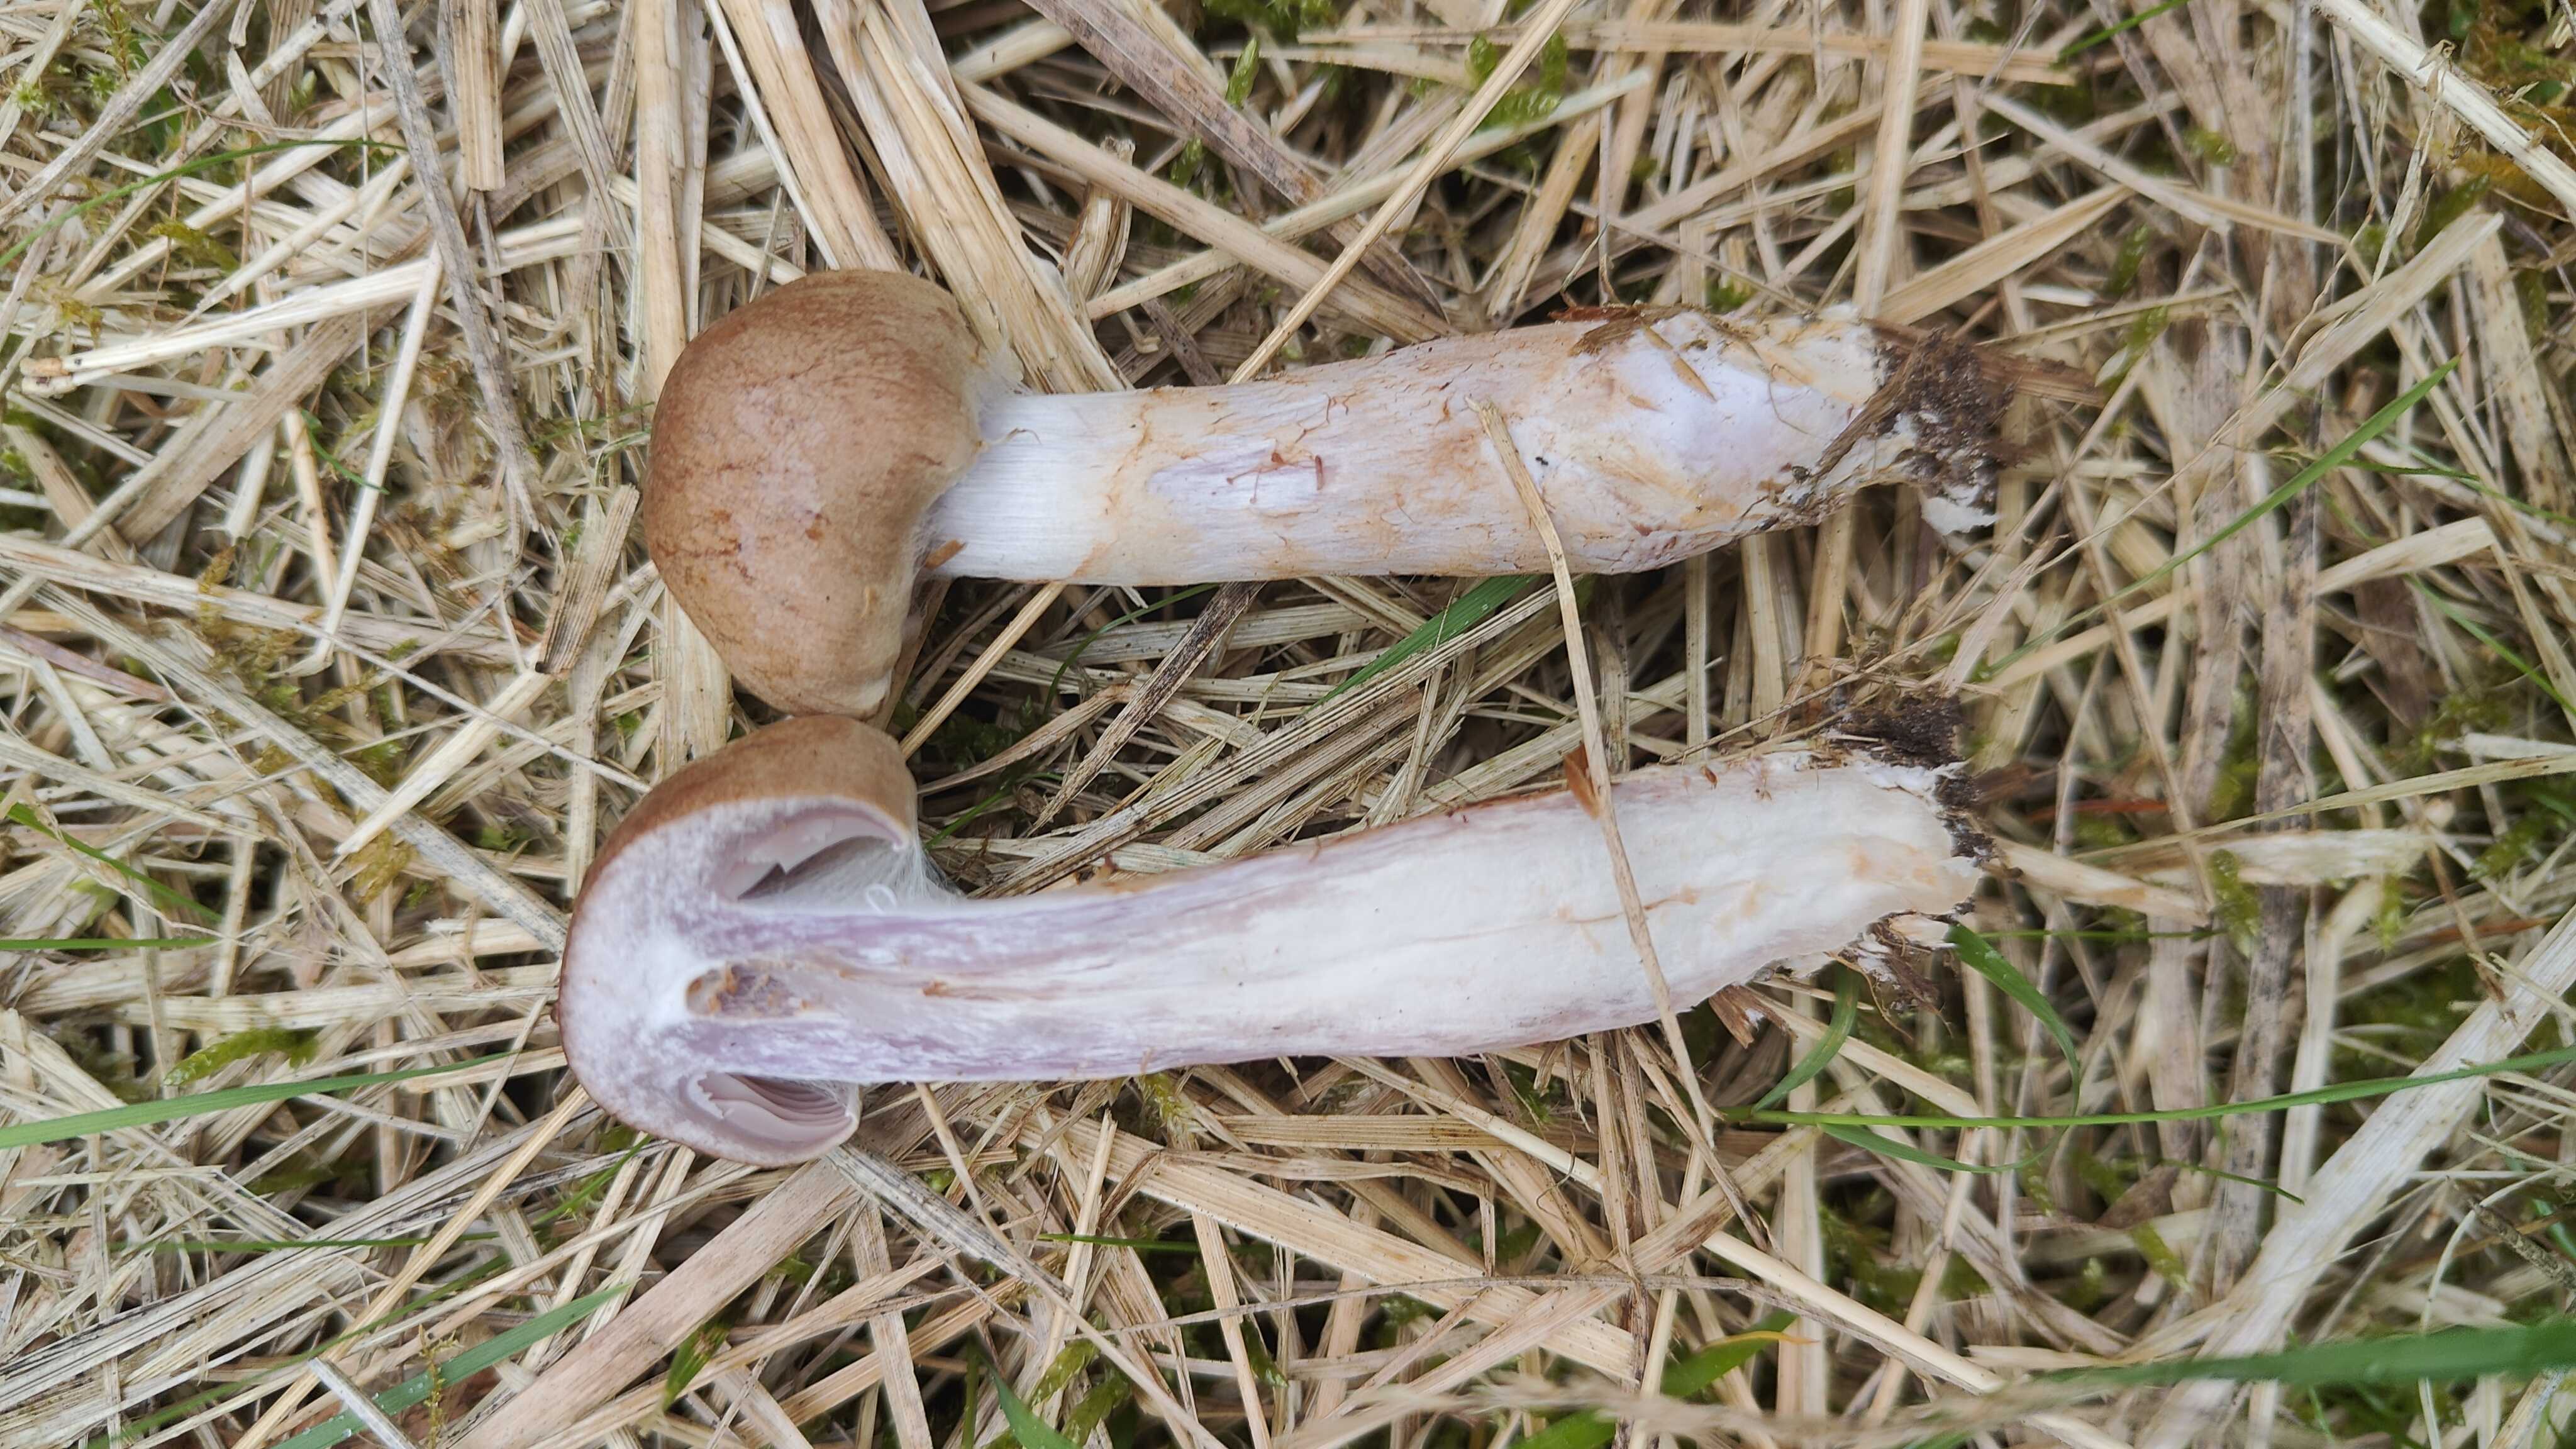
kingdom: Fungi
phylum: Basidiomycota
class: Agaricomycetes
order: Agaricales
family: Cortinariaceae
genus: Cortinarius
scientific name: Cortinarius caninus
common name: gran-slørhat
